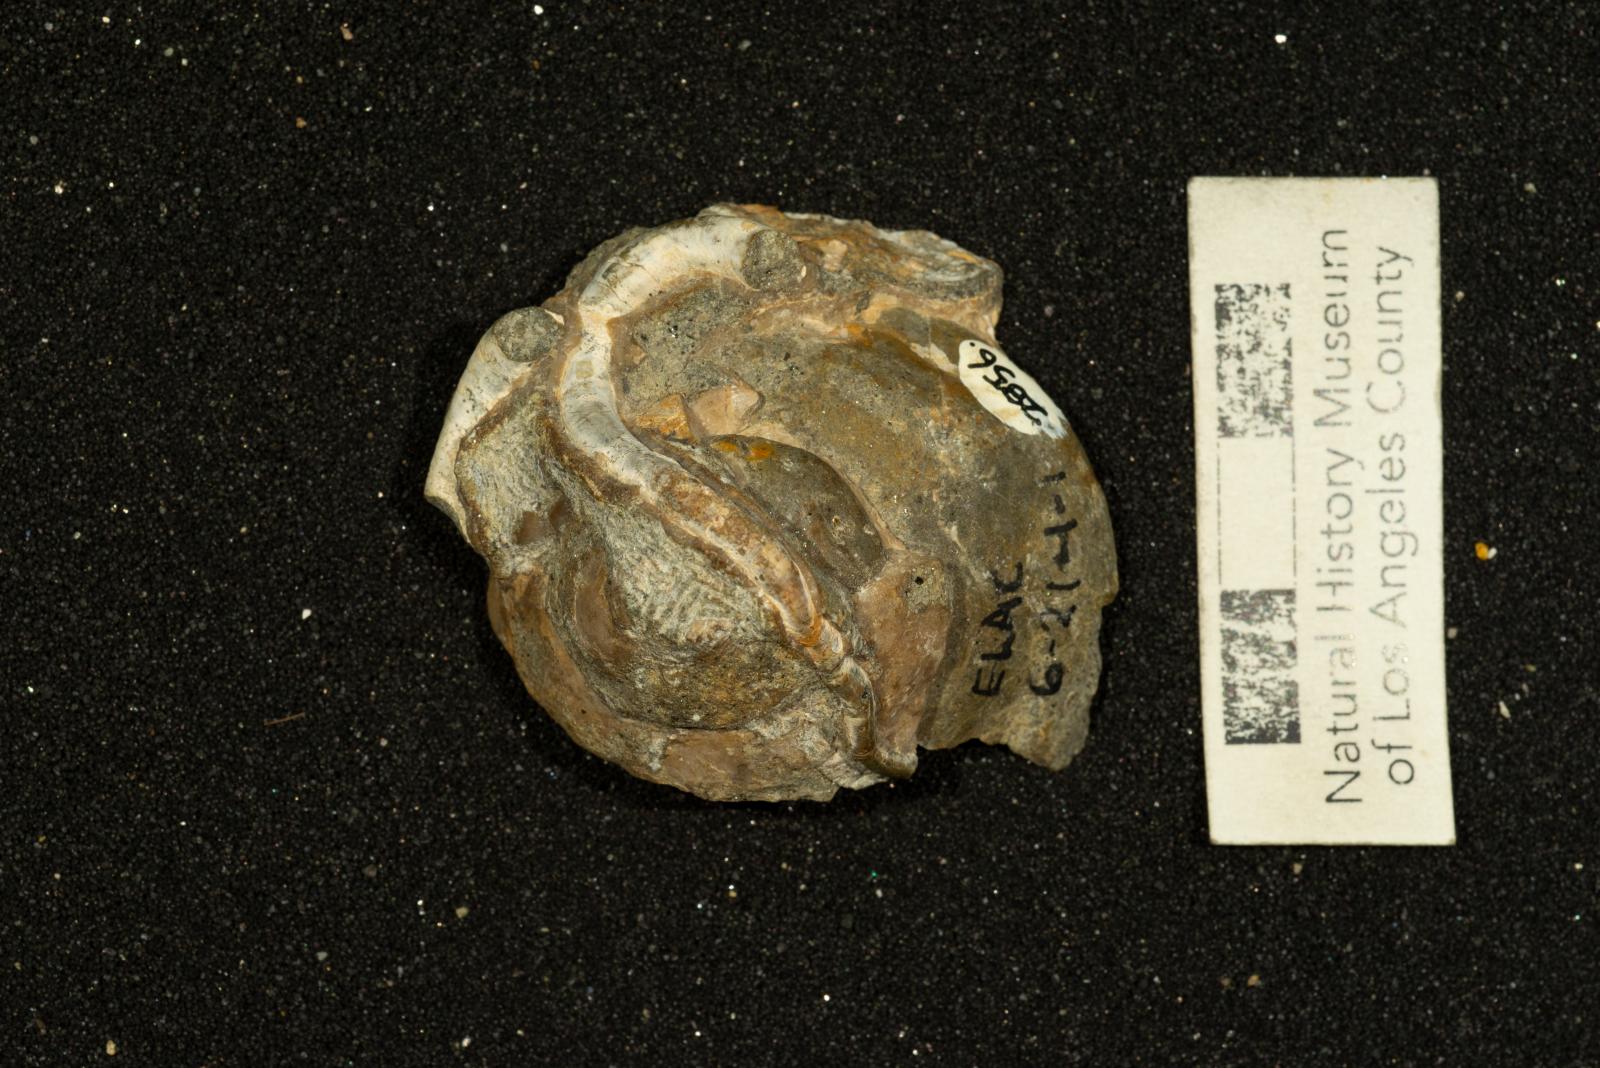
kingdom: Animalia
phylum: Mollusca
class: Gastropoda
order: Littorinimorpha
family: Xenophoridae
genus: Xenophora
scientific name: Xenophora hermax
